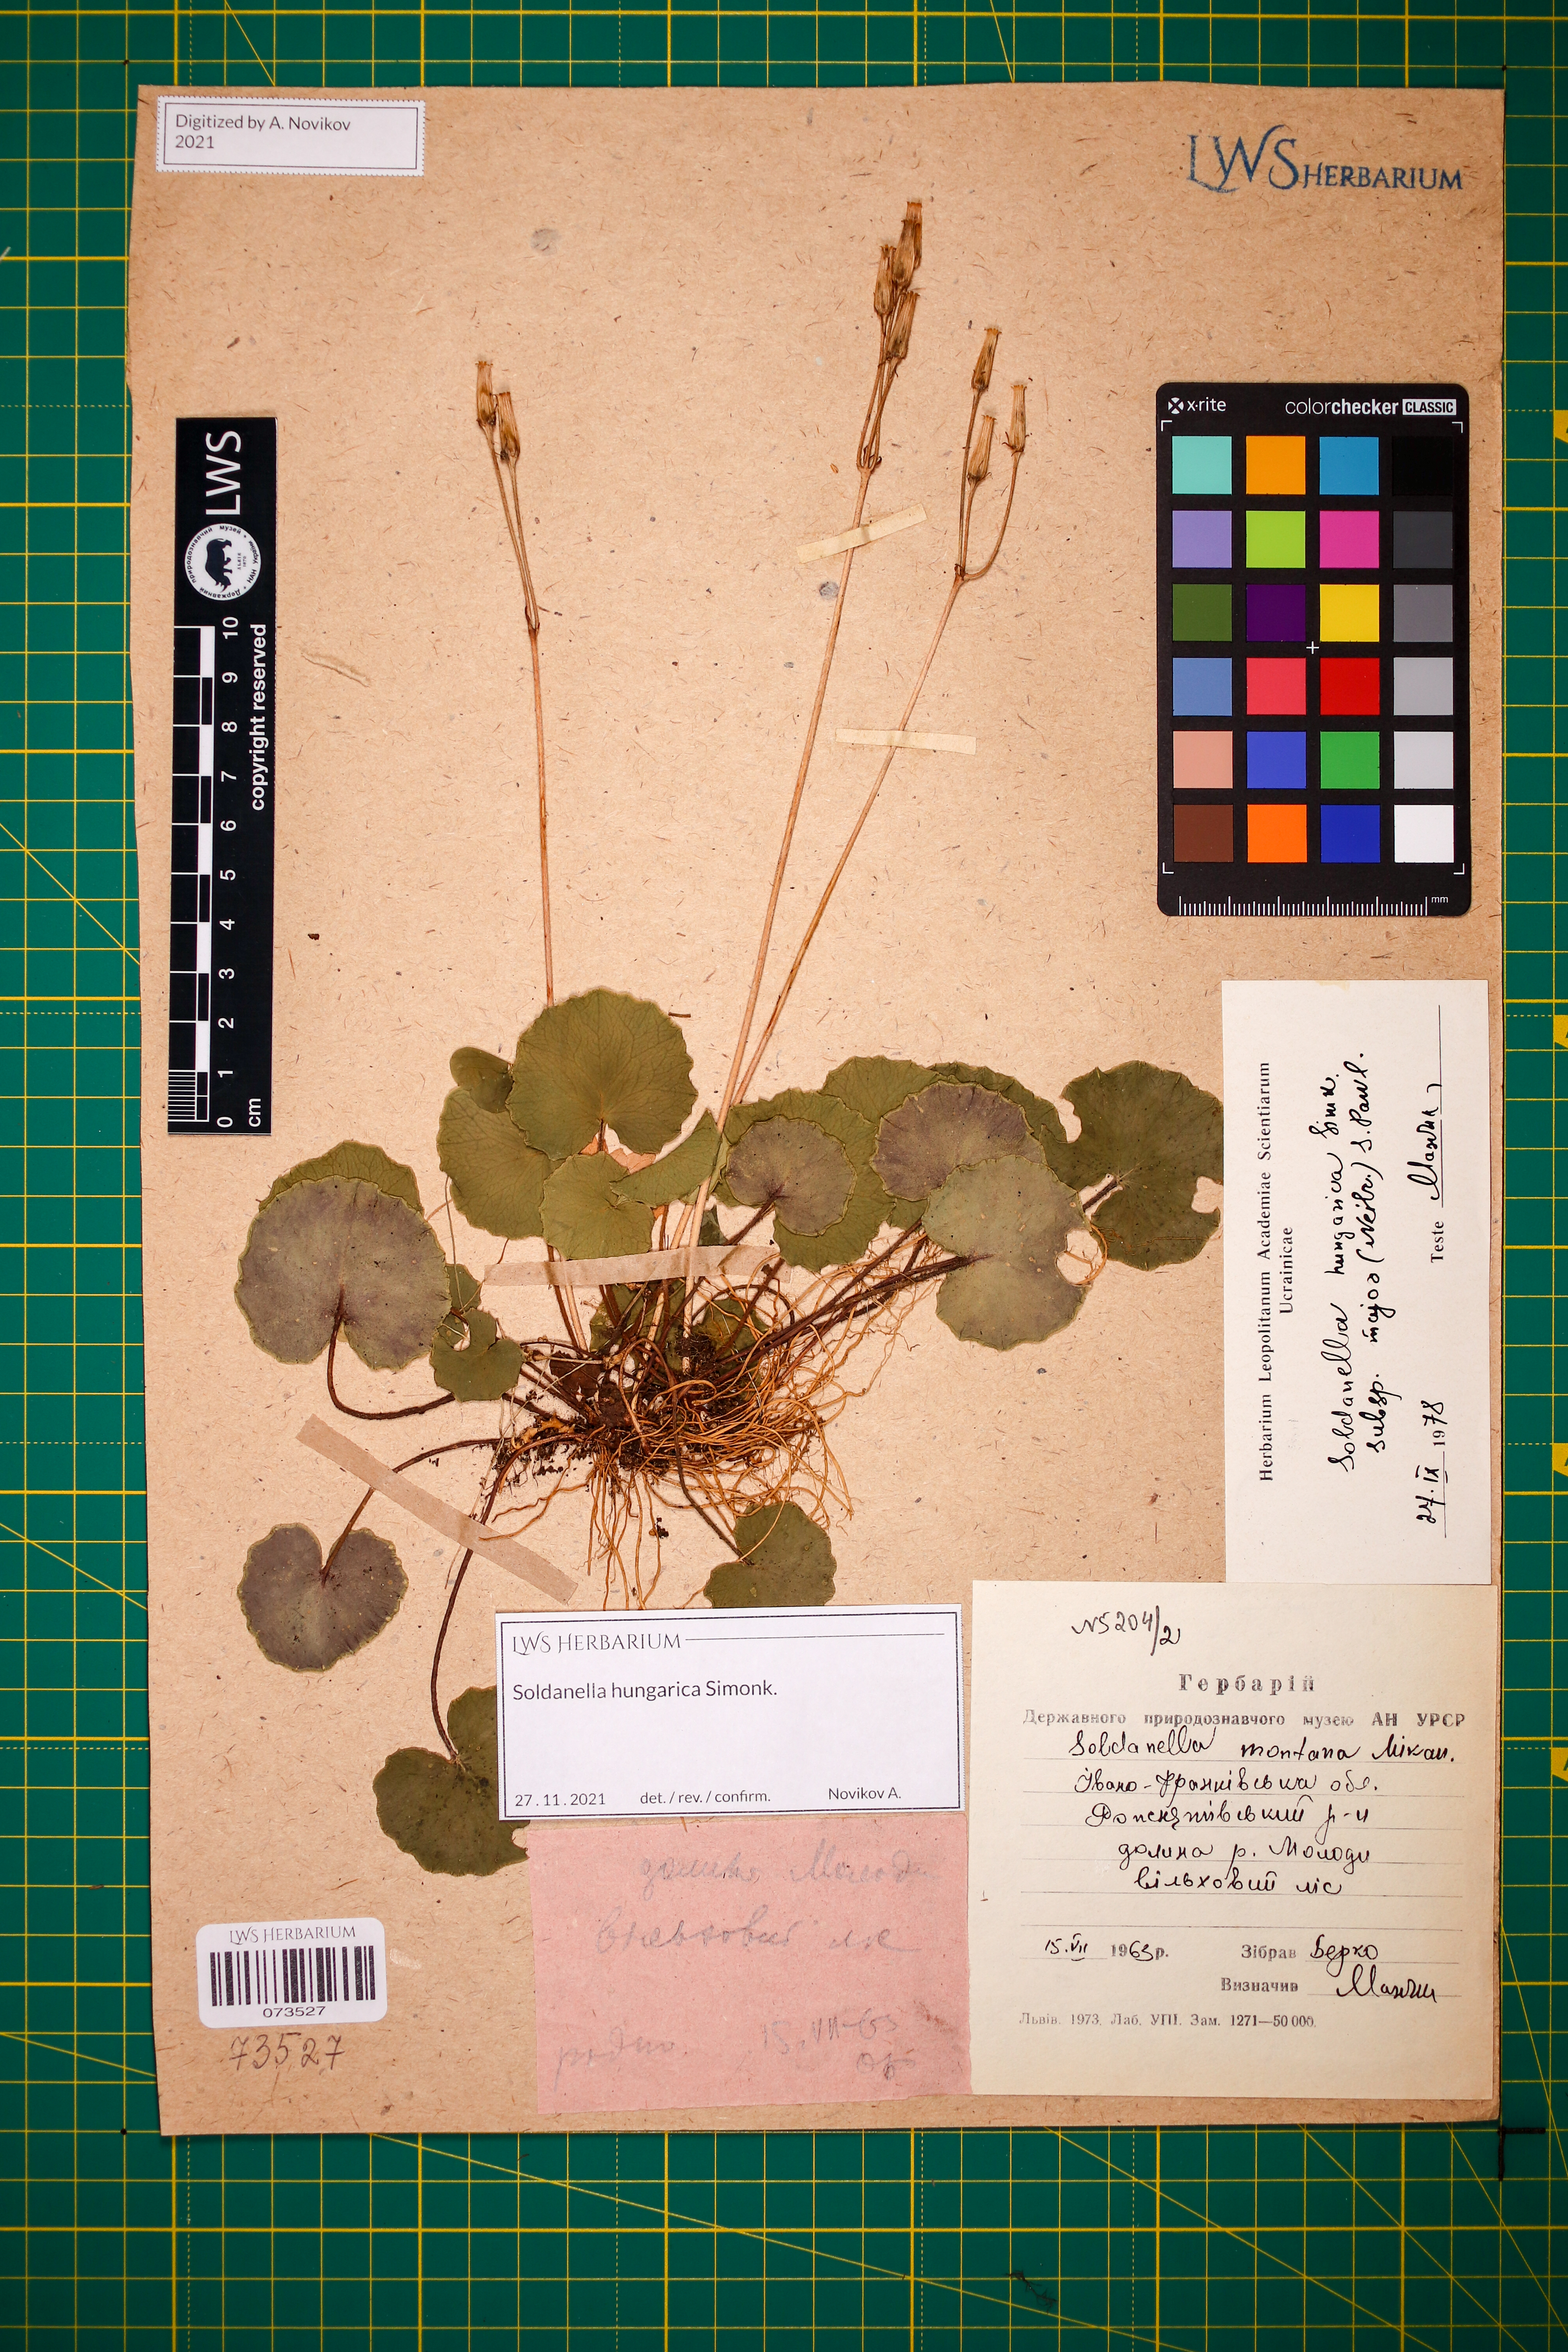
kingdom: Plantae
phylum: Tracheophyta
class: Magnoliopsida
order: Ericales
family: Primulaceae
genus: Soldanella
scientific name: Soldanella hungarica
